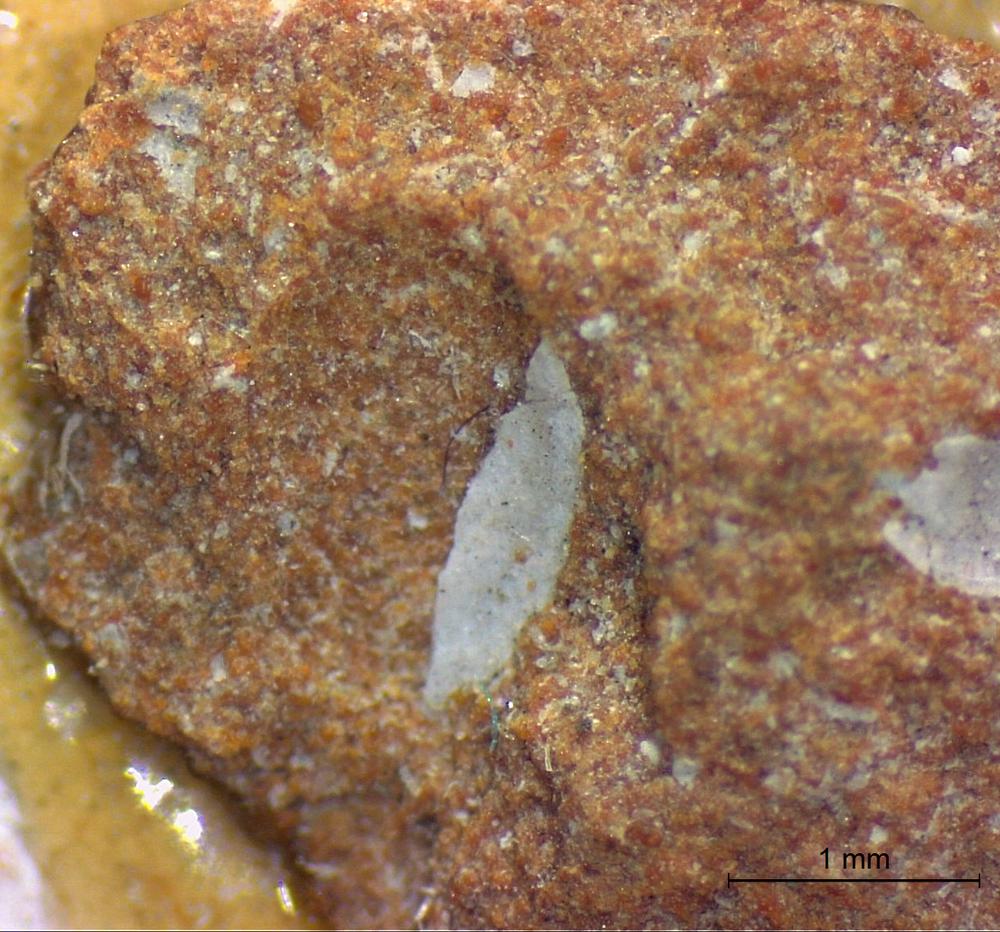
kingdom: Animalia
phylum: Brachiopoda
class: Craniata
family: Craniopsidae
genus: Craniops
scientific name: Craniops
